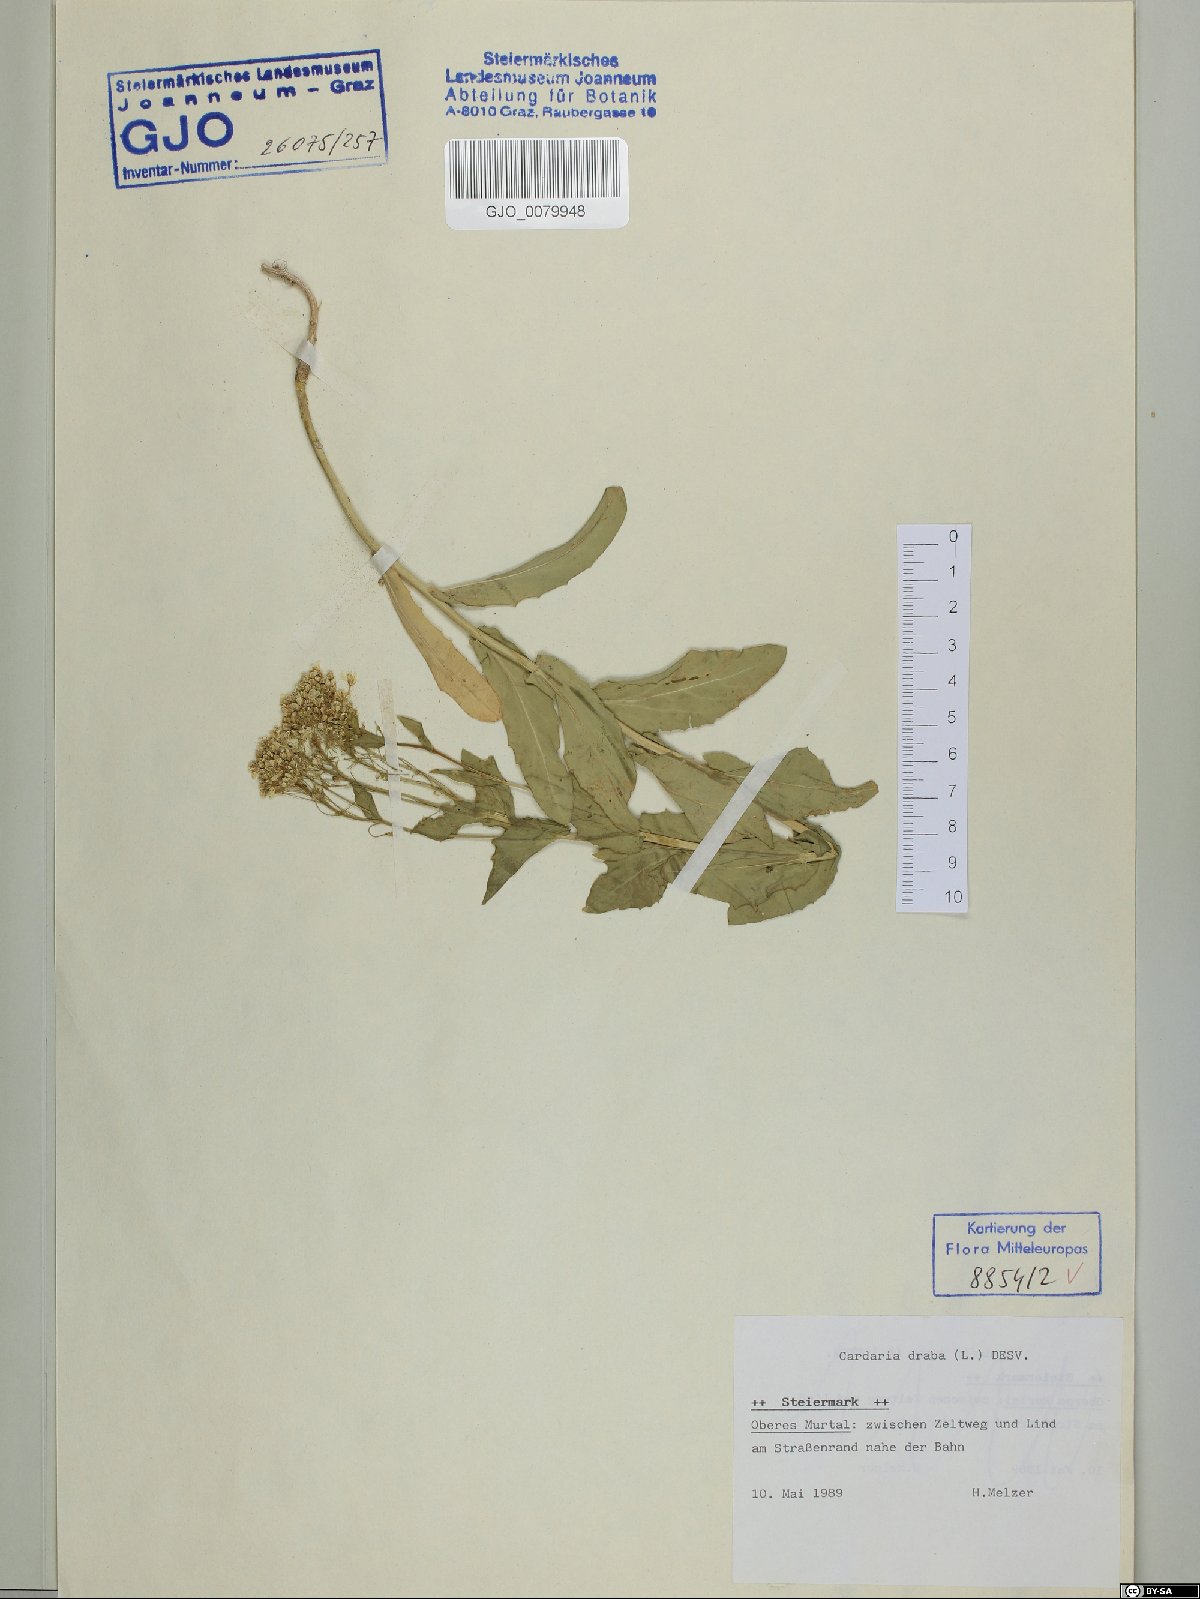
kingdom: Plantae
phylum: Tracheophyta
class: Magnoliopsida
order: Brassicales
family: Brassicaceae
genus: Lepidium
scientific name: Lepidium draba
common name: Hoary cress
